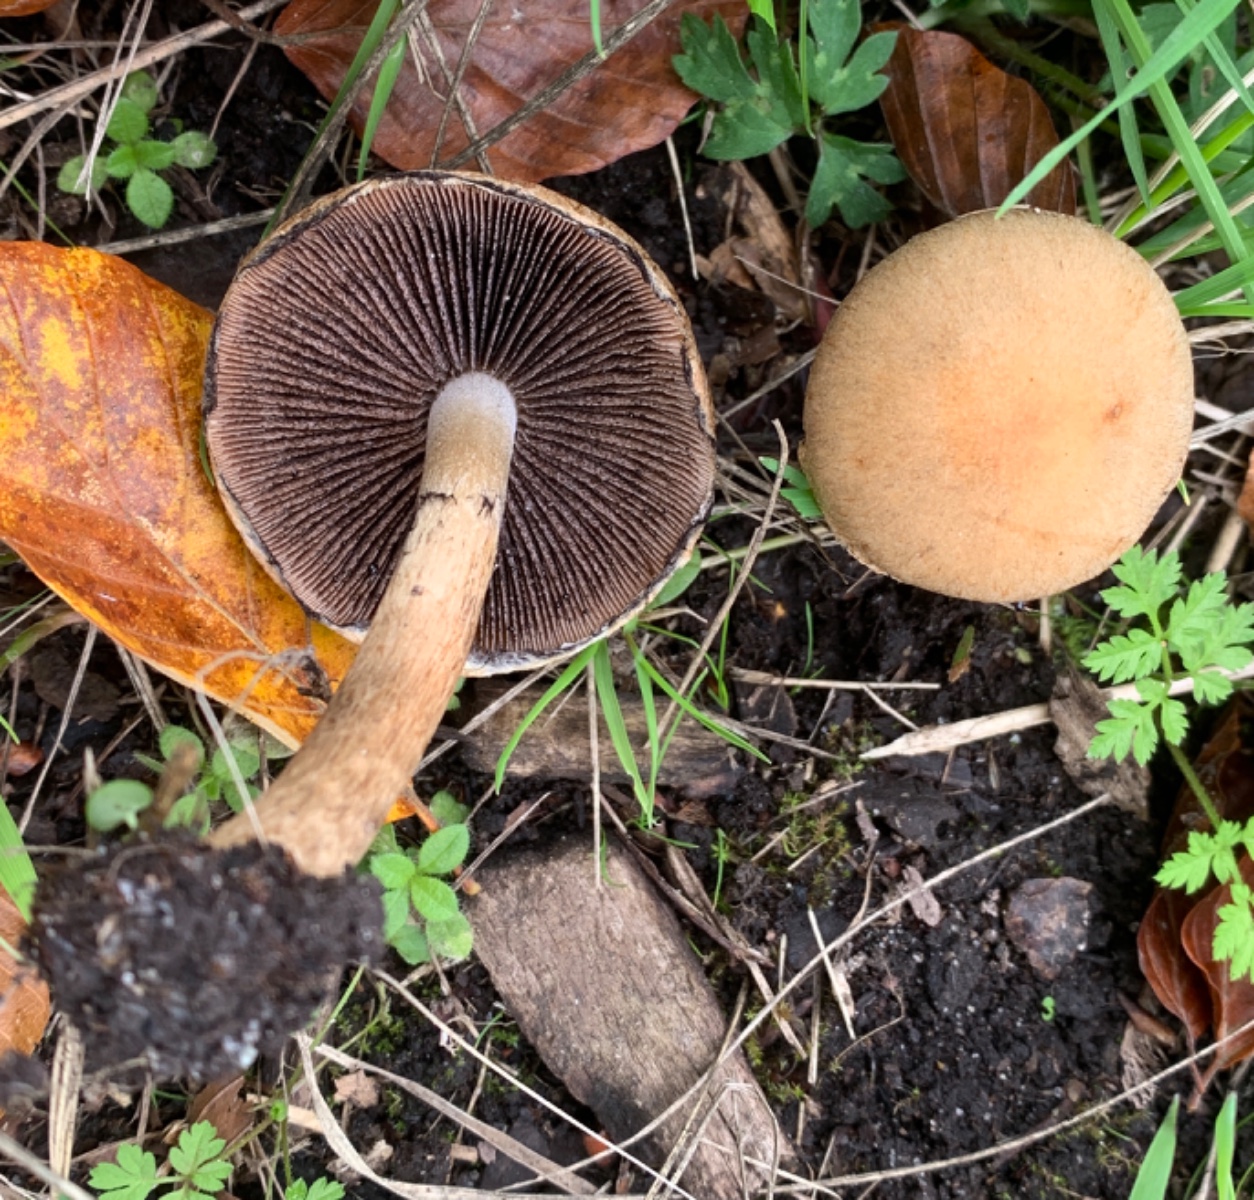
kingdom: Fungi
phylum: Basidiomycota
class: Agaricomycetes
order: Agaricales
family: Psathyrellaceae
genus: Lacrymaria
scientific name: Lacrymaria lacrymabunda
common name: grædende mørkhat
